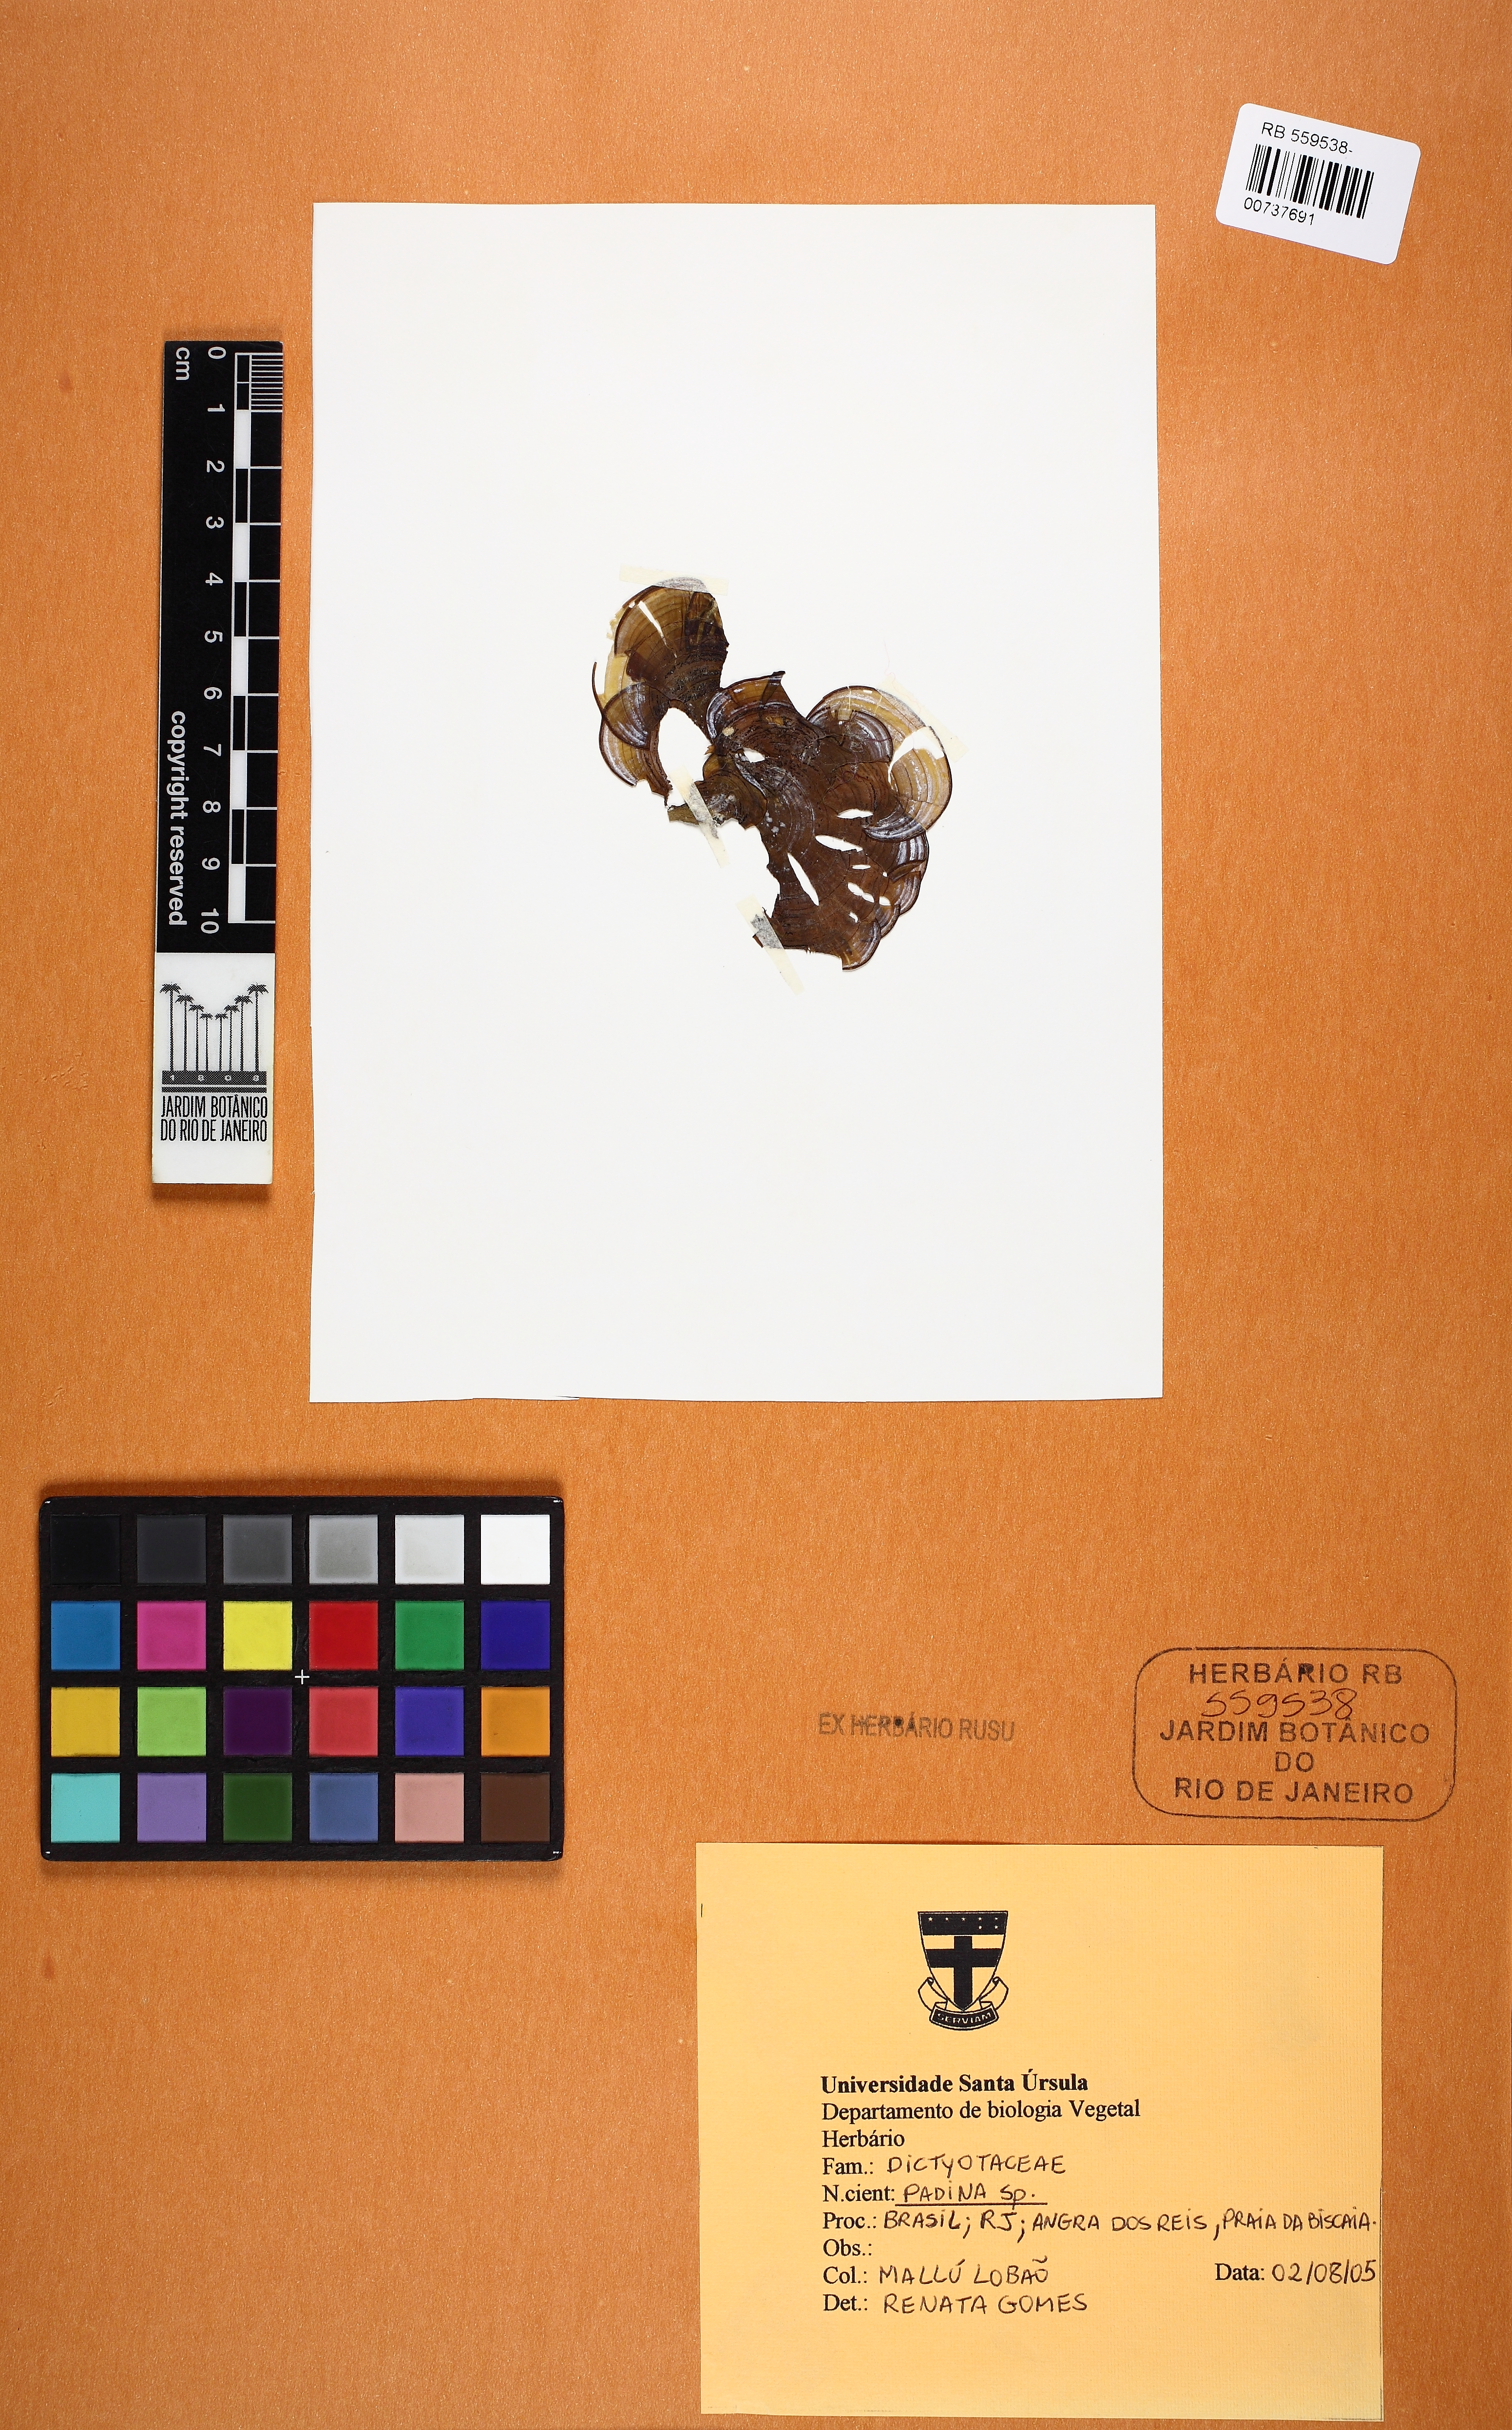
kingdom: Chromista
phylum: Ochrophyta
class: Phaeophyceae
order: Dictyotales
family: Dictyotaceae
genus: Padina
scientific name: Padina
